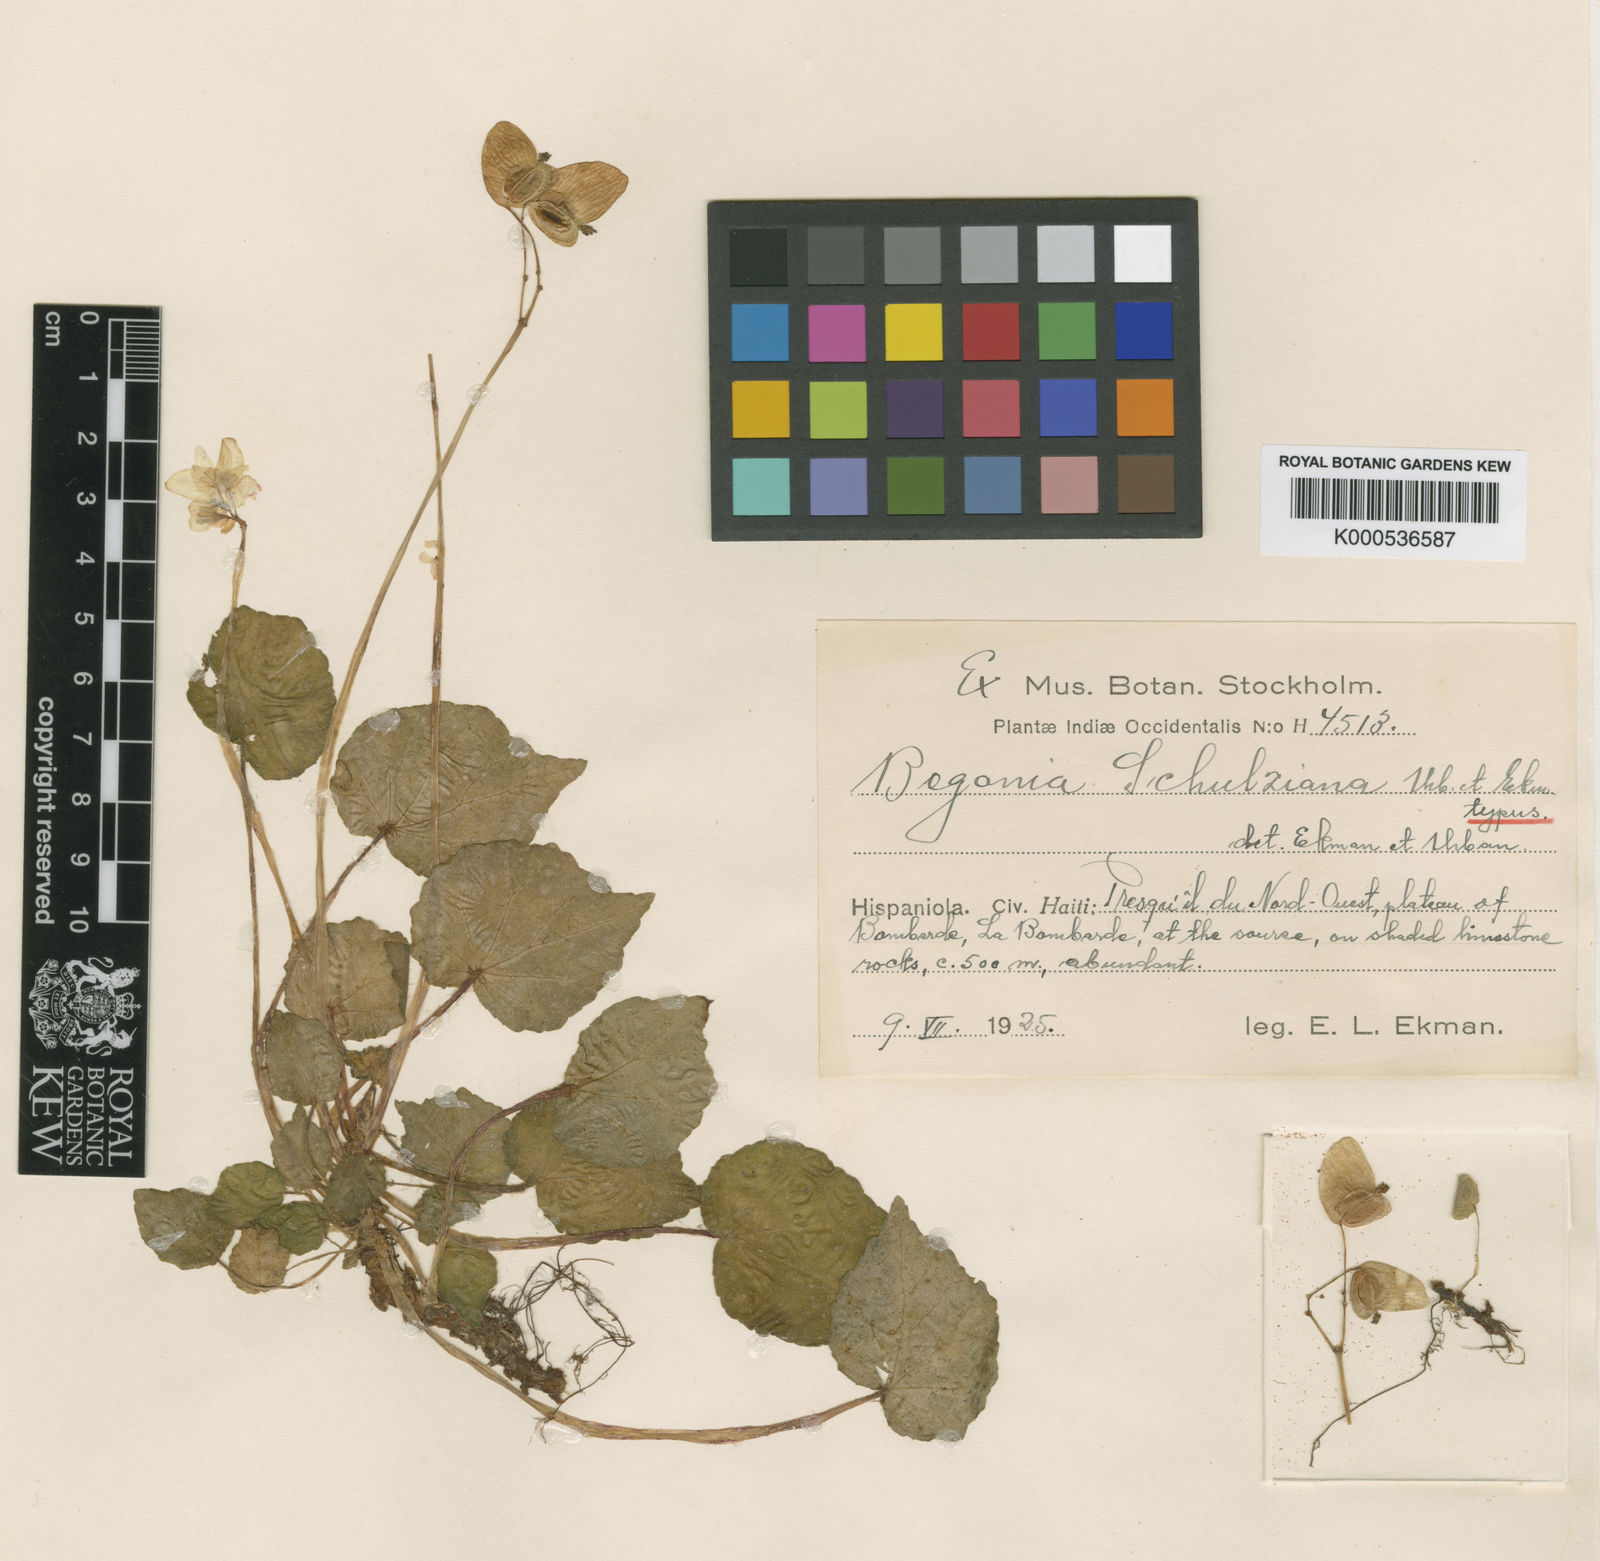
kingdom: Plantae
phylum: Tracheophyta
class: Magnoliopsida
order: Cucurbitales
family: Begoniaceae
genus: Begonia
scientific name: Begonia schulziana
